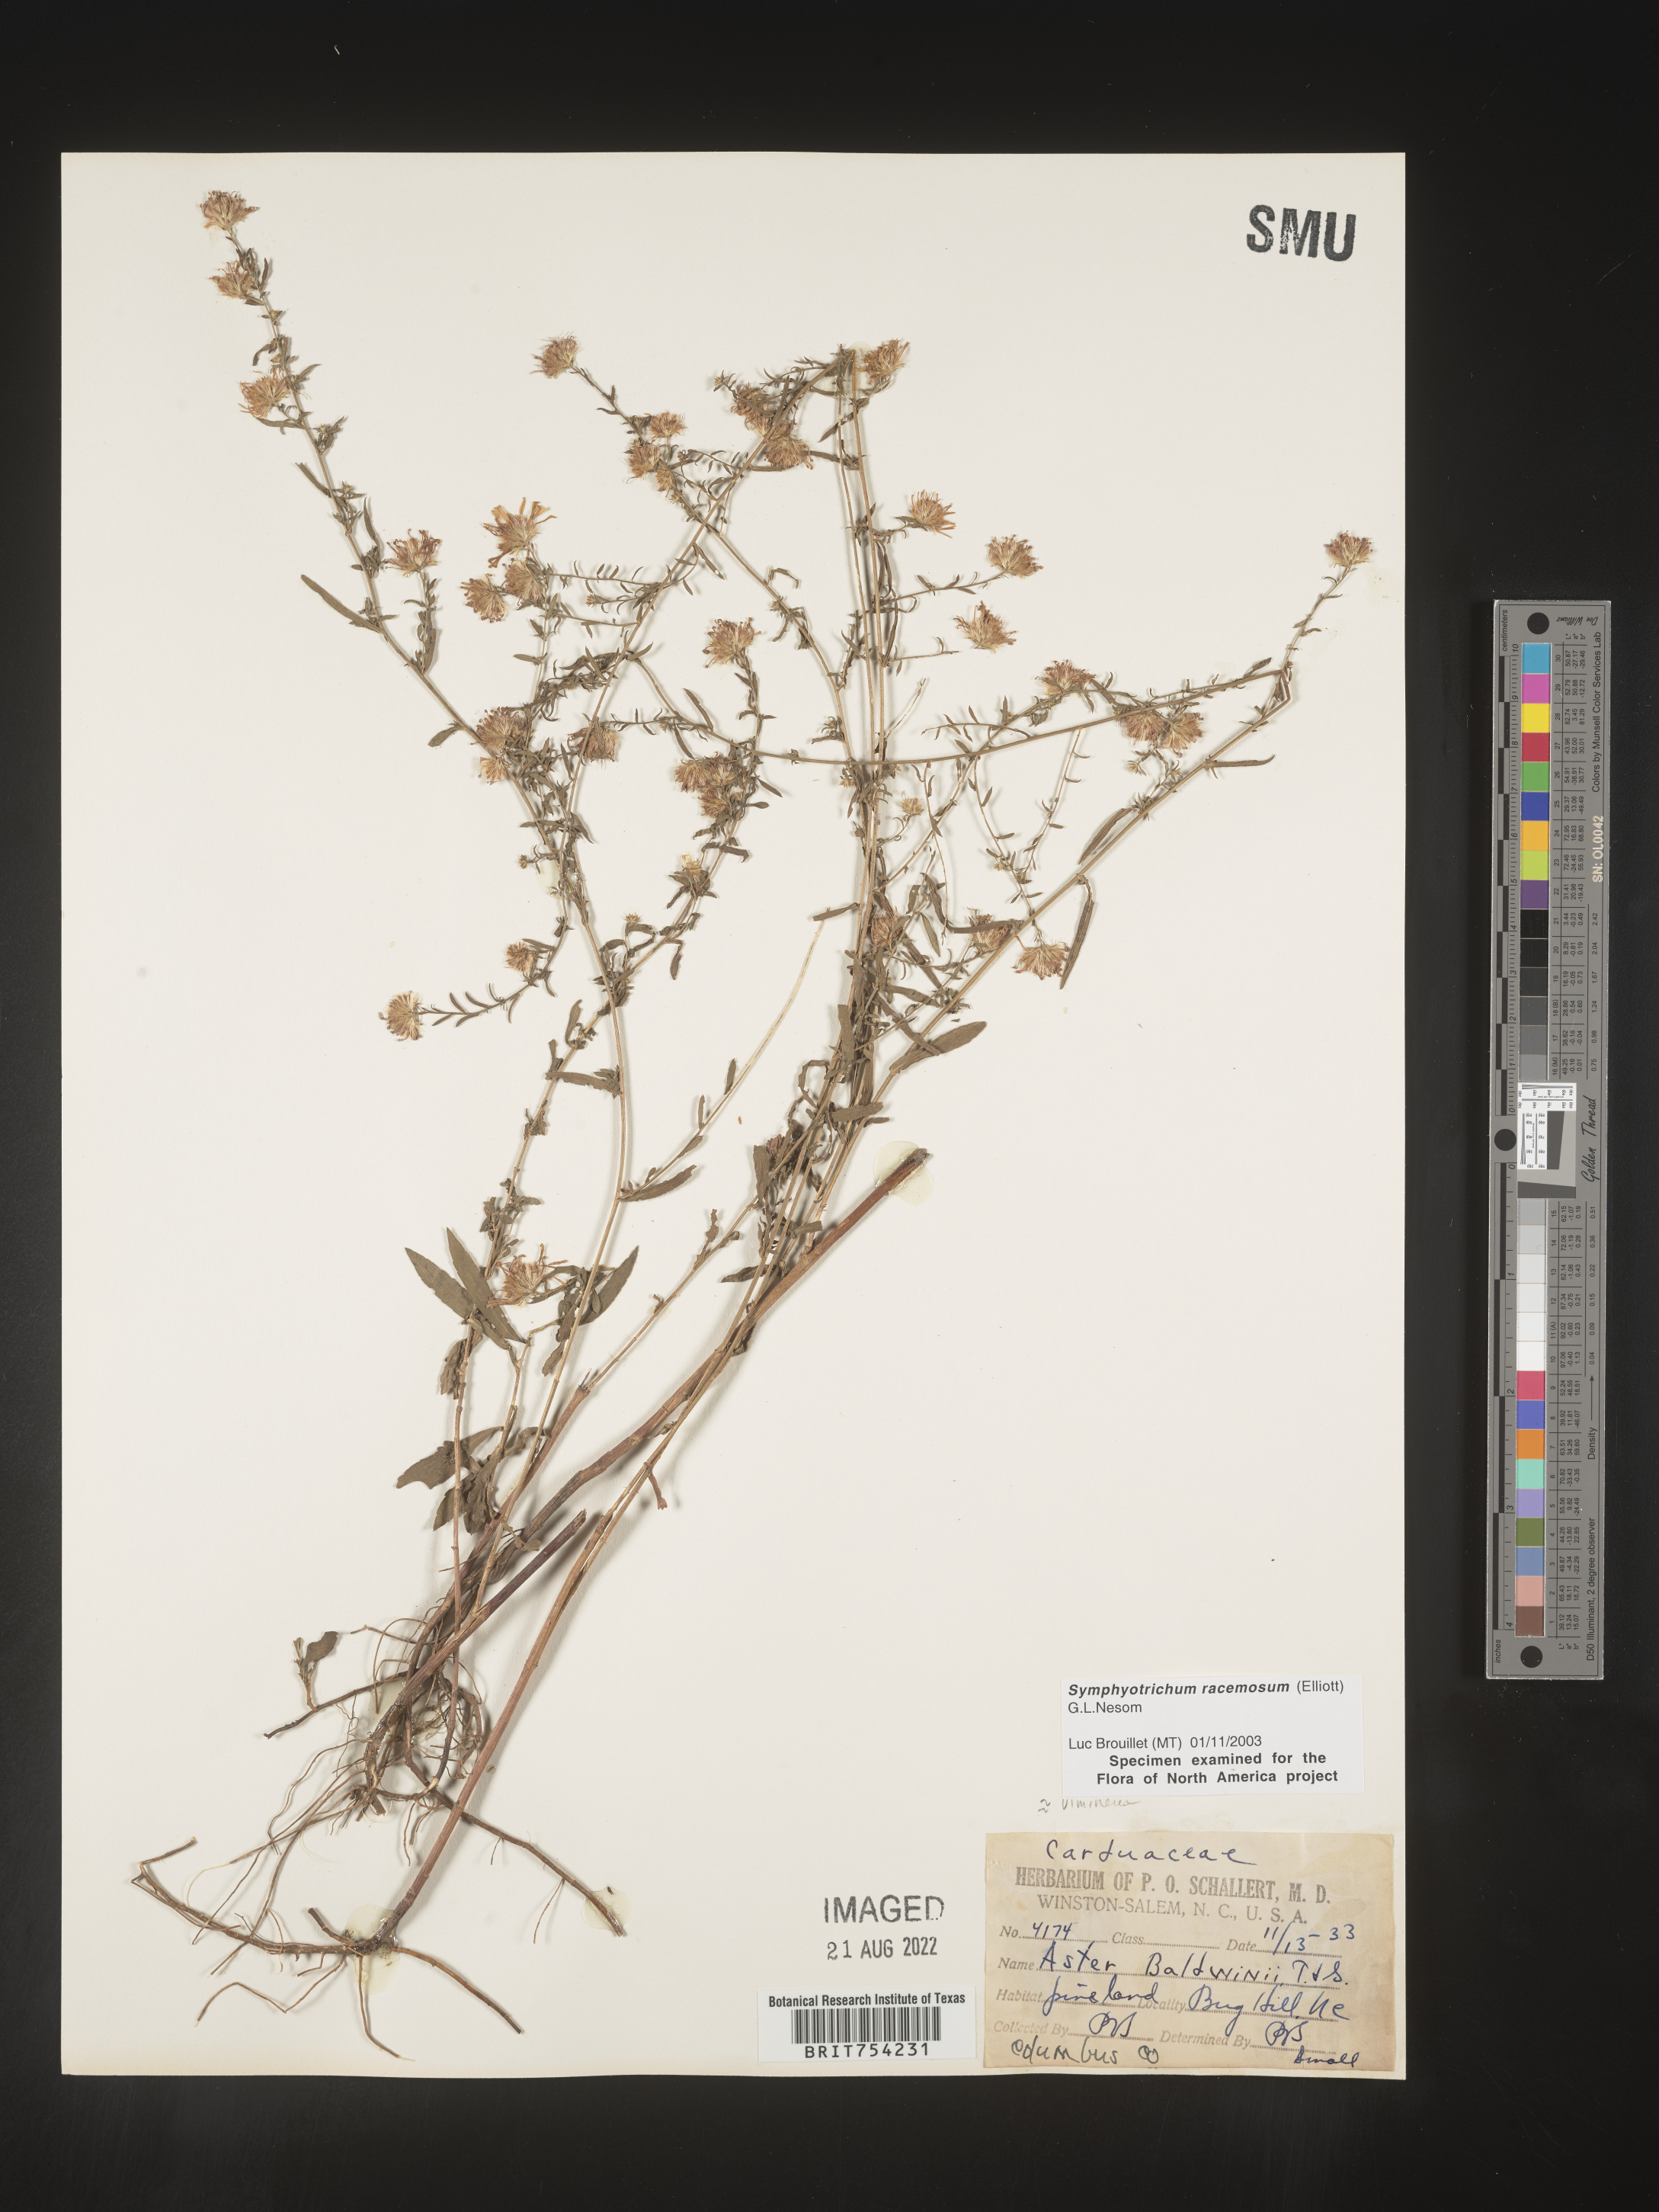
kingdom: Plantae
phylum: Tracheophyta
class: Magnoliopsida
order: Asterales
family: Asteraceae
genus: Symphyotrichum
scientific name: Symphyotrichum racemosum
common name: Small white aster
